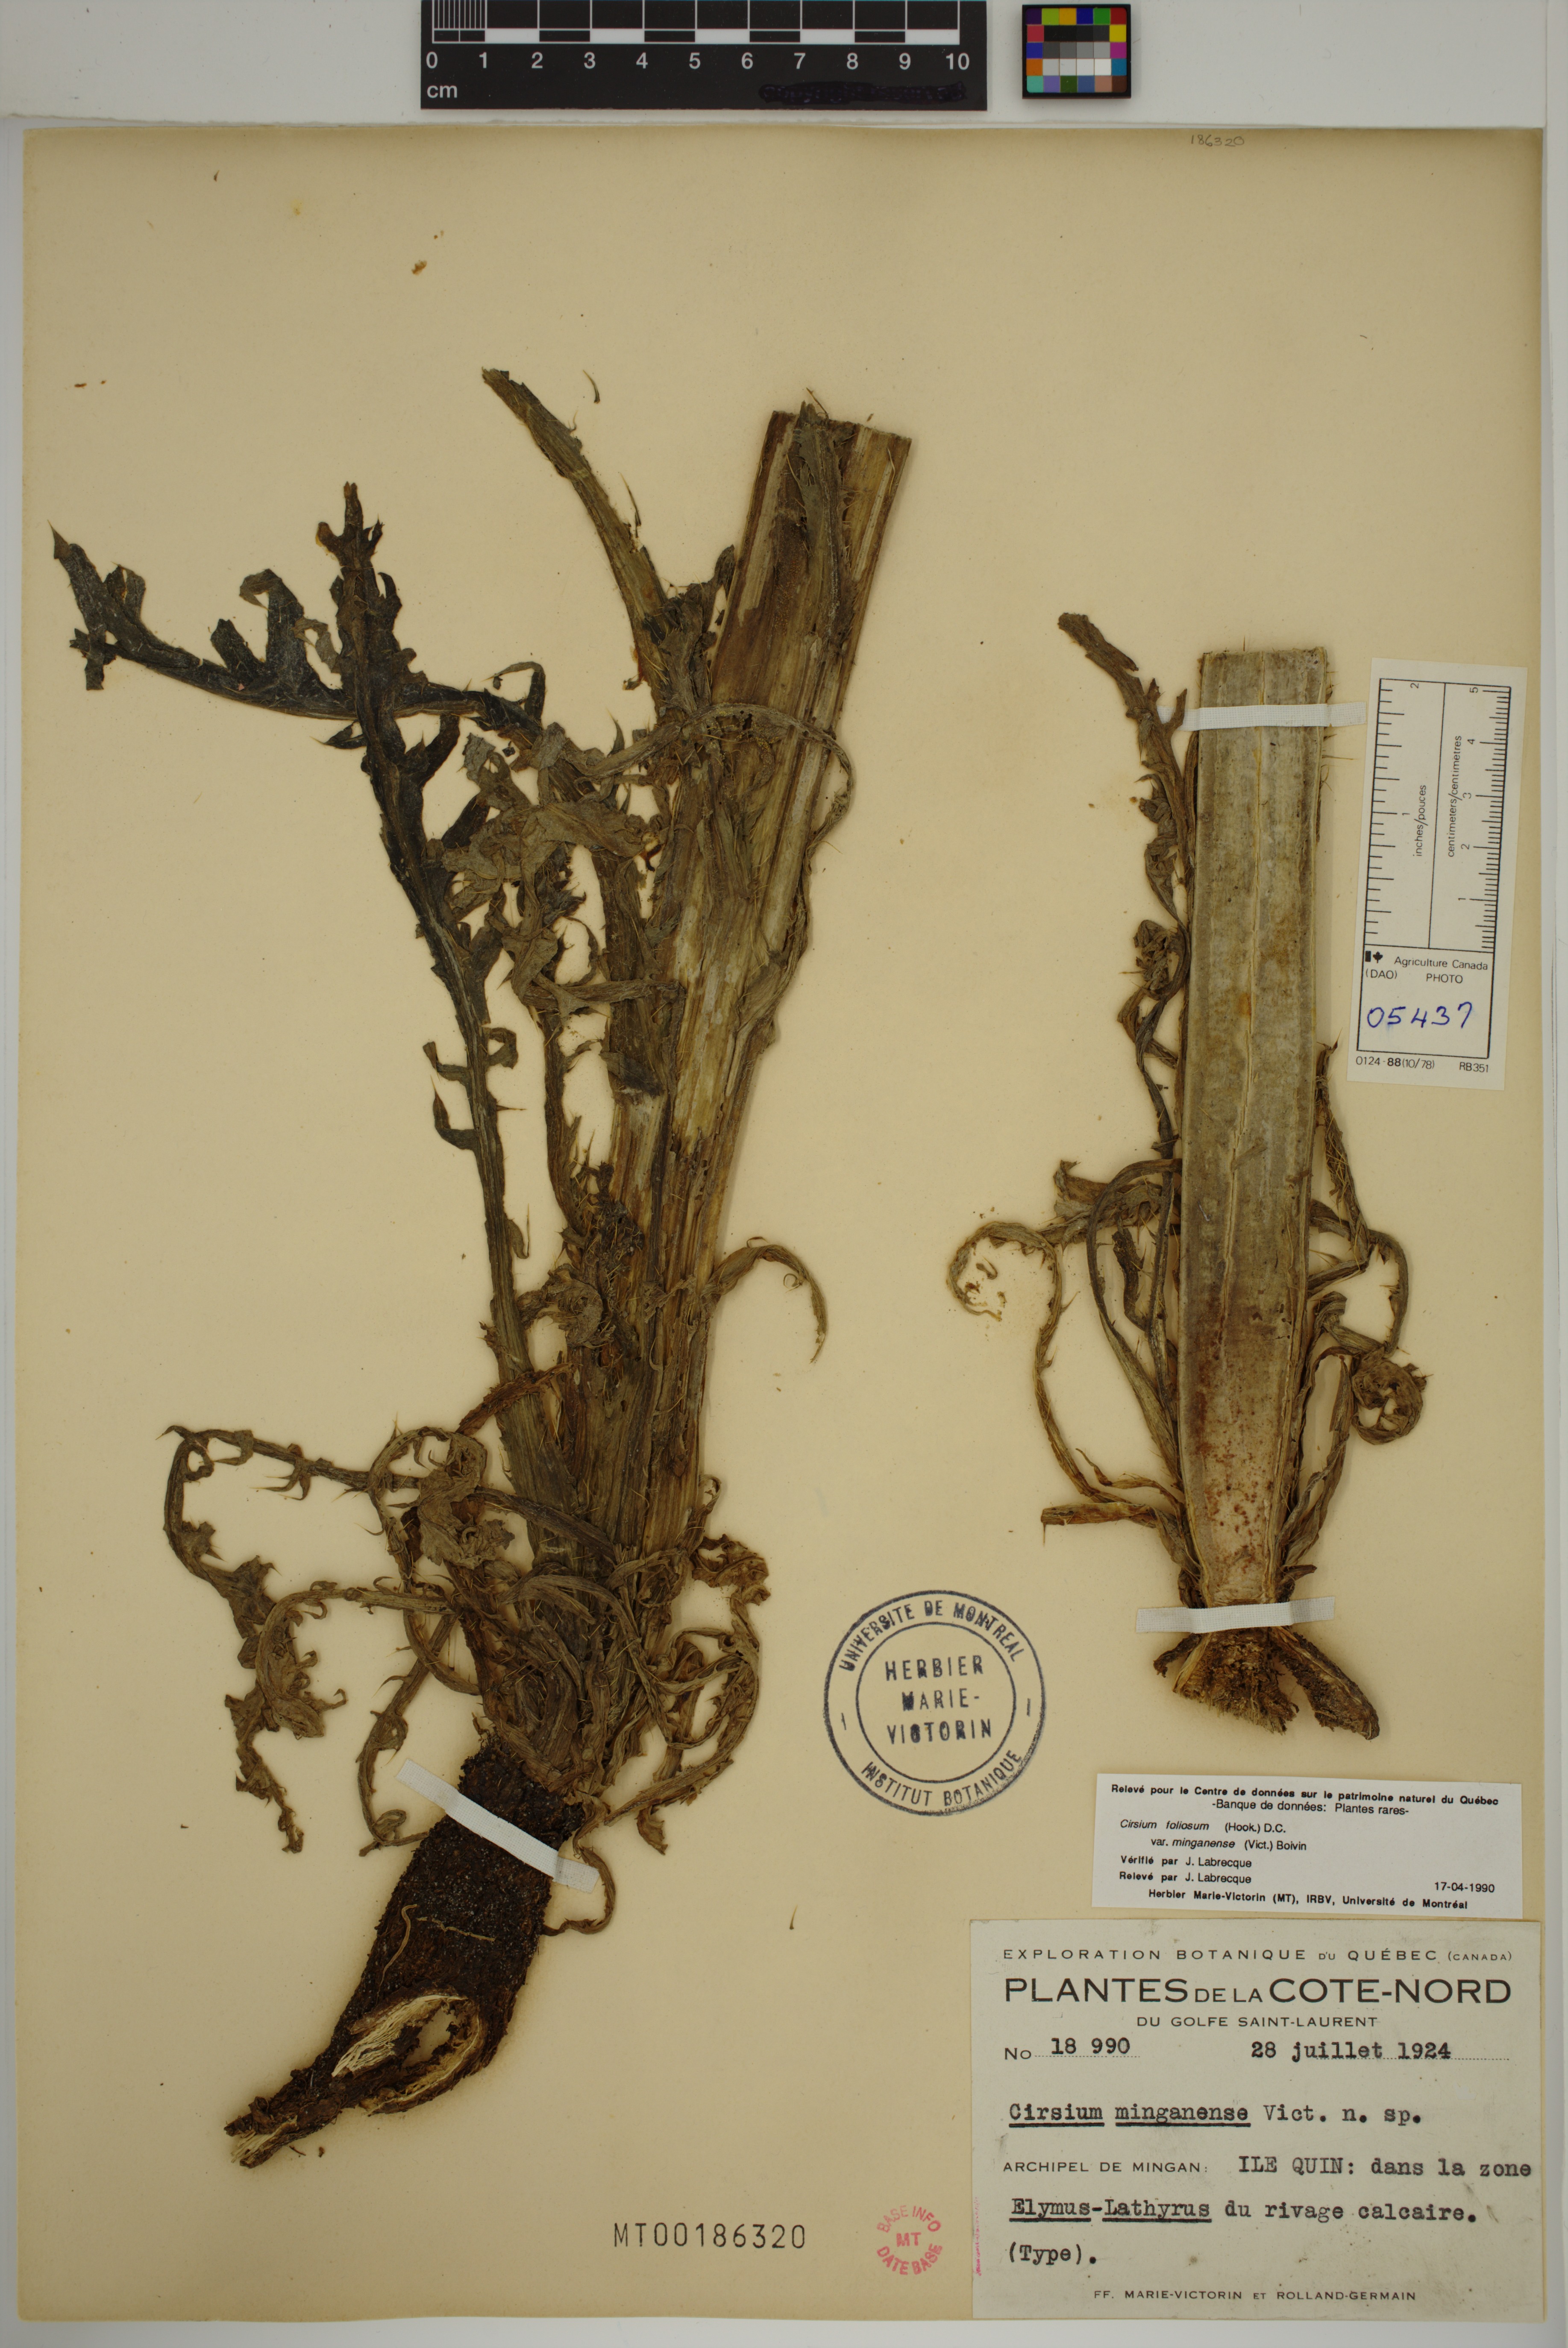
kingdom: Plantae
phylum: Tracheophyta
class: Magnoliopsida
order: Asterales
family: Asteraceae
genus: Cirsium
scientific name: Cirsium scariosum
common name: Meadow thistle
